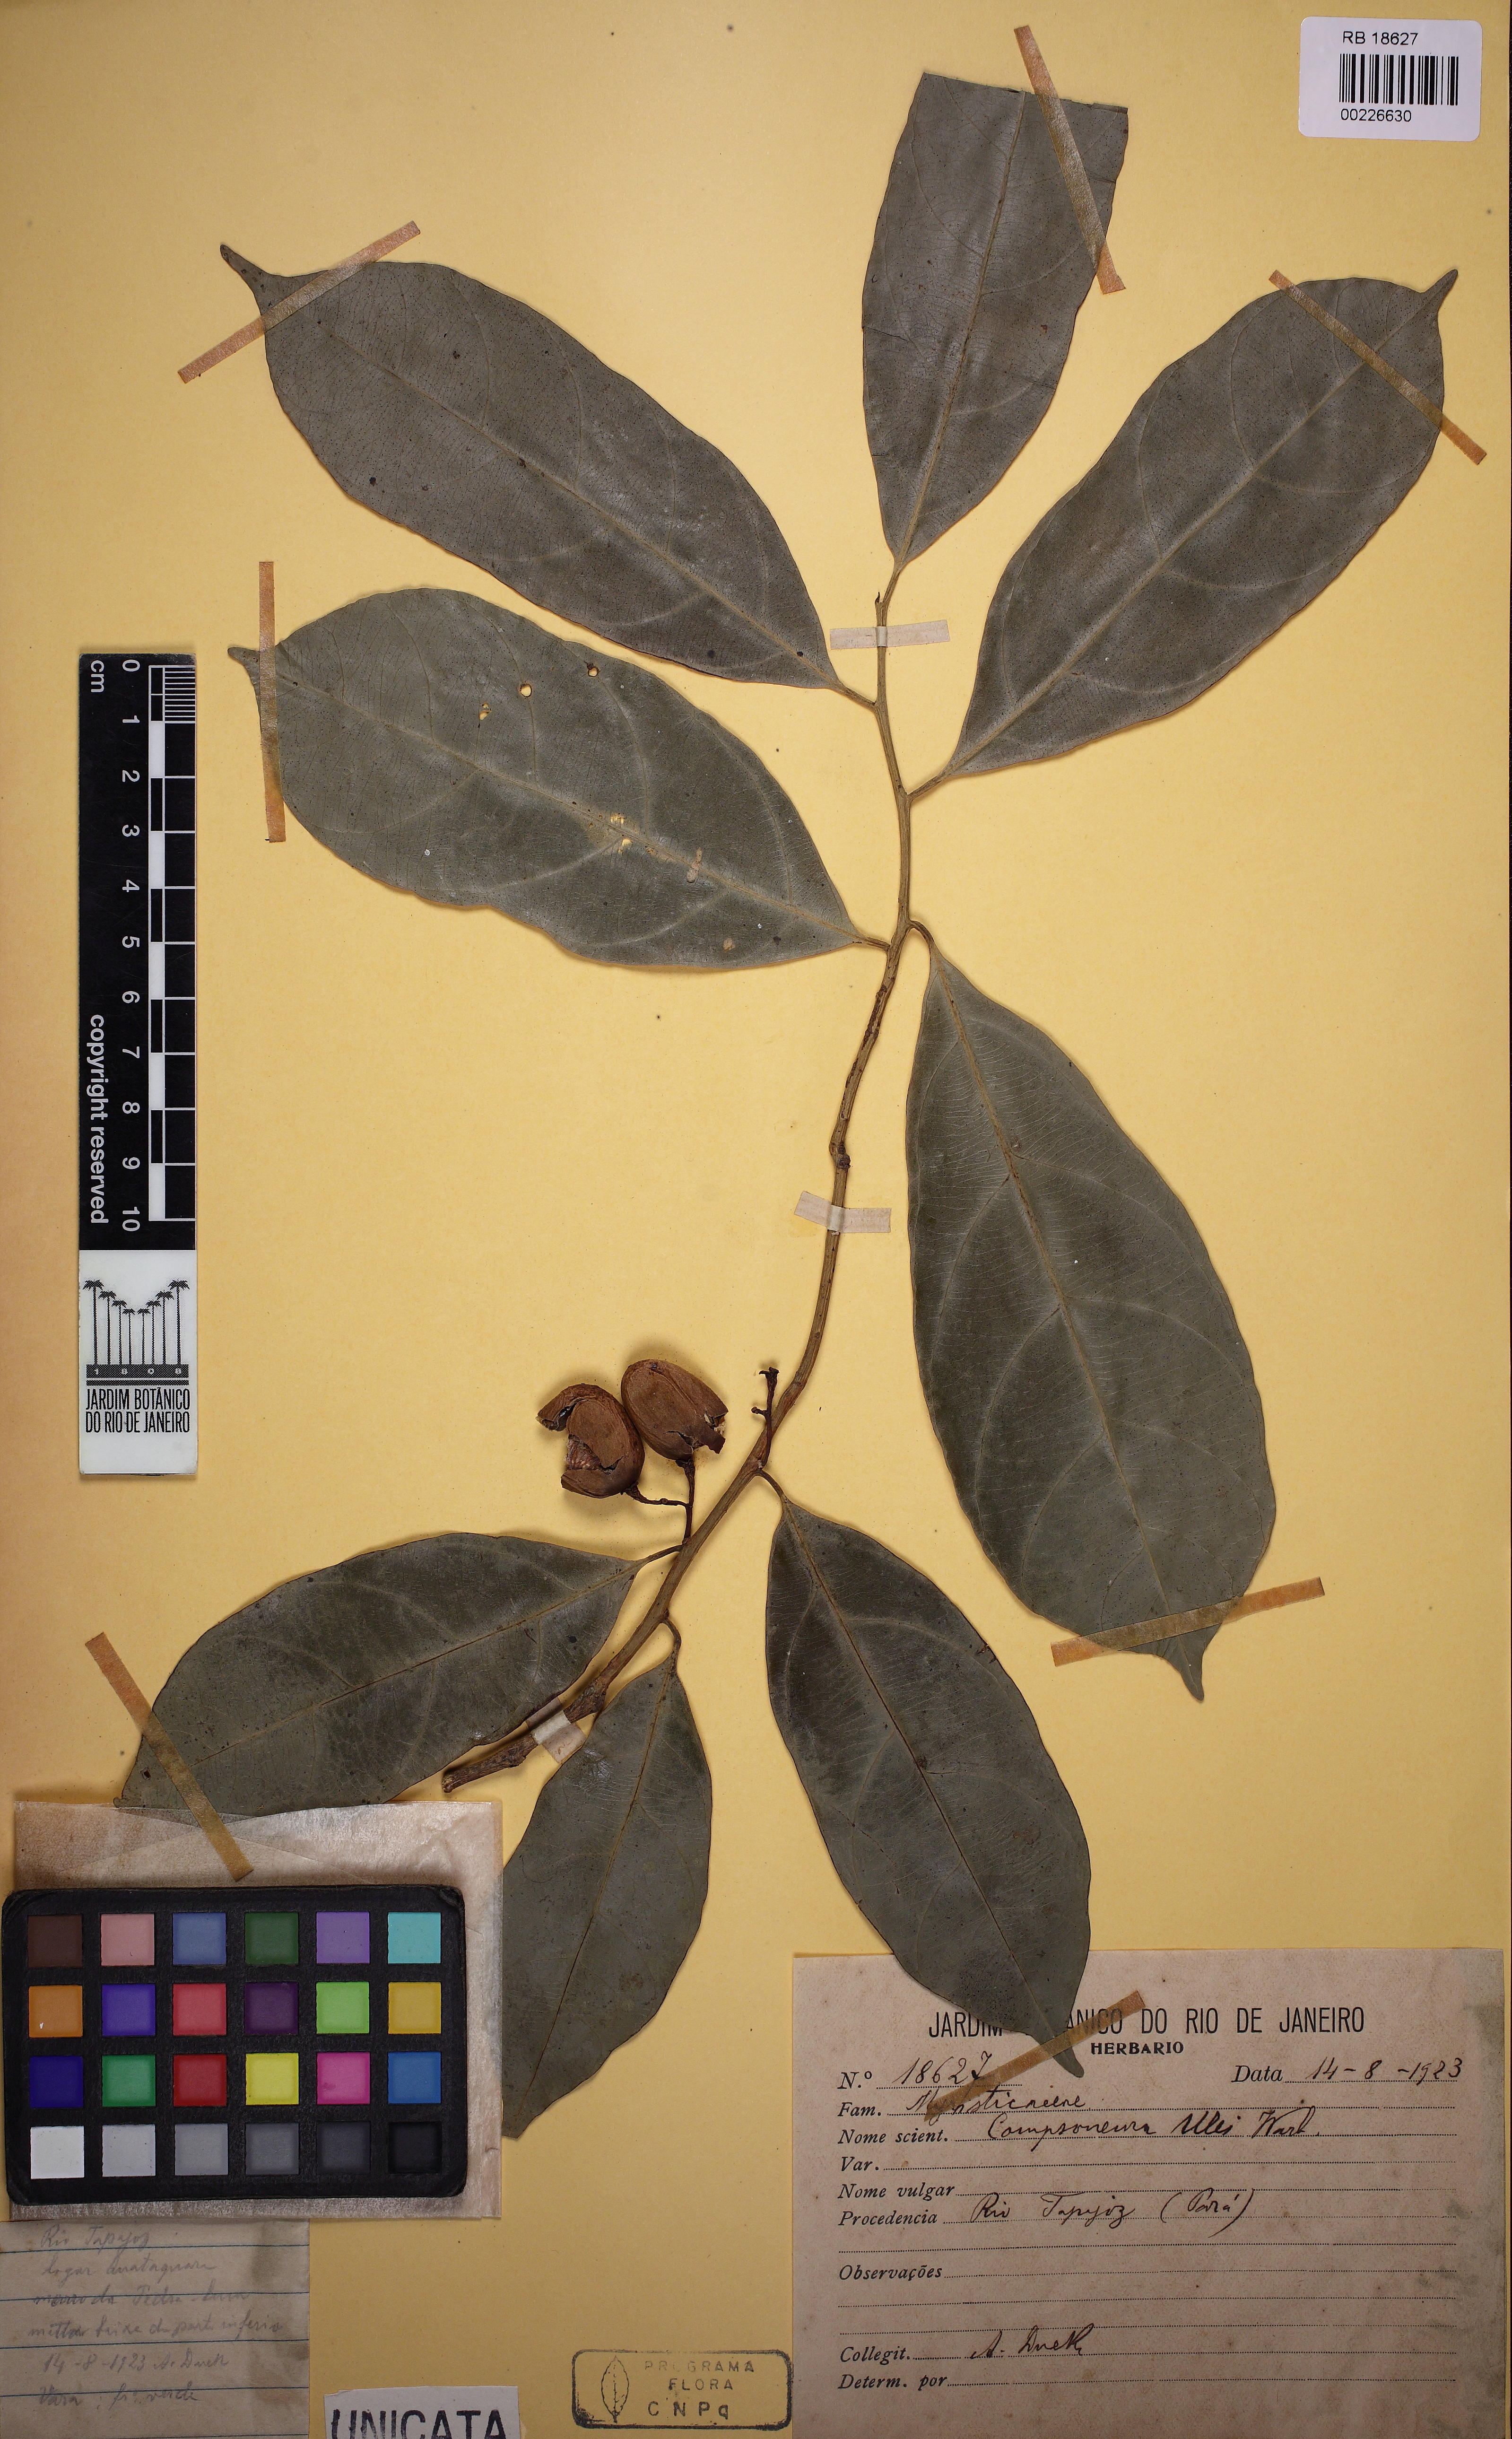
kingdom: Plantae
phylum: Tracheophyta
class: Magnoliopsida
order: Magnoliales
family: Myristicaceae
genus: Compsoneura
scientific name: Compsoneura ulei
